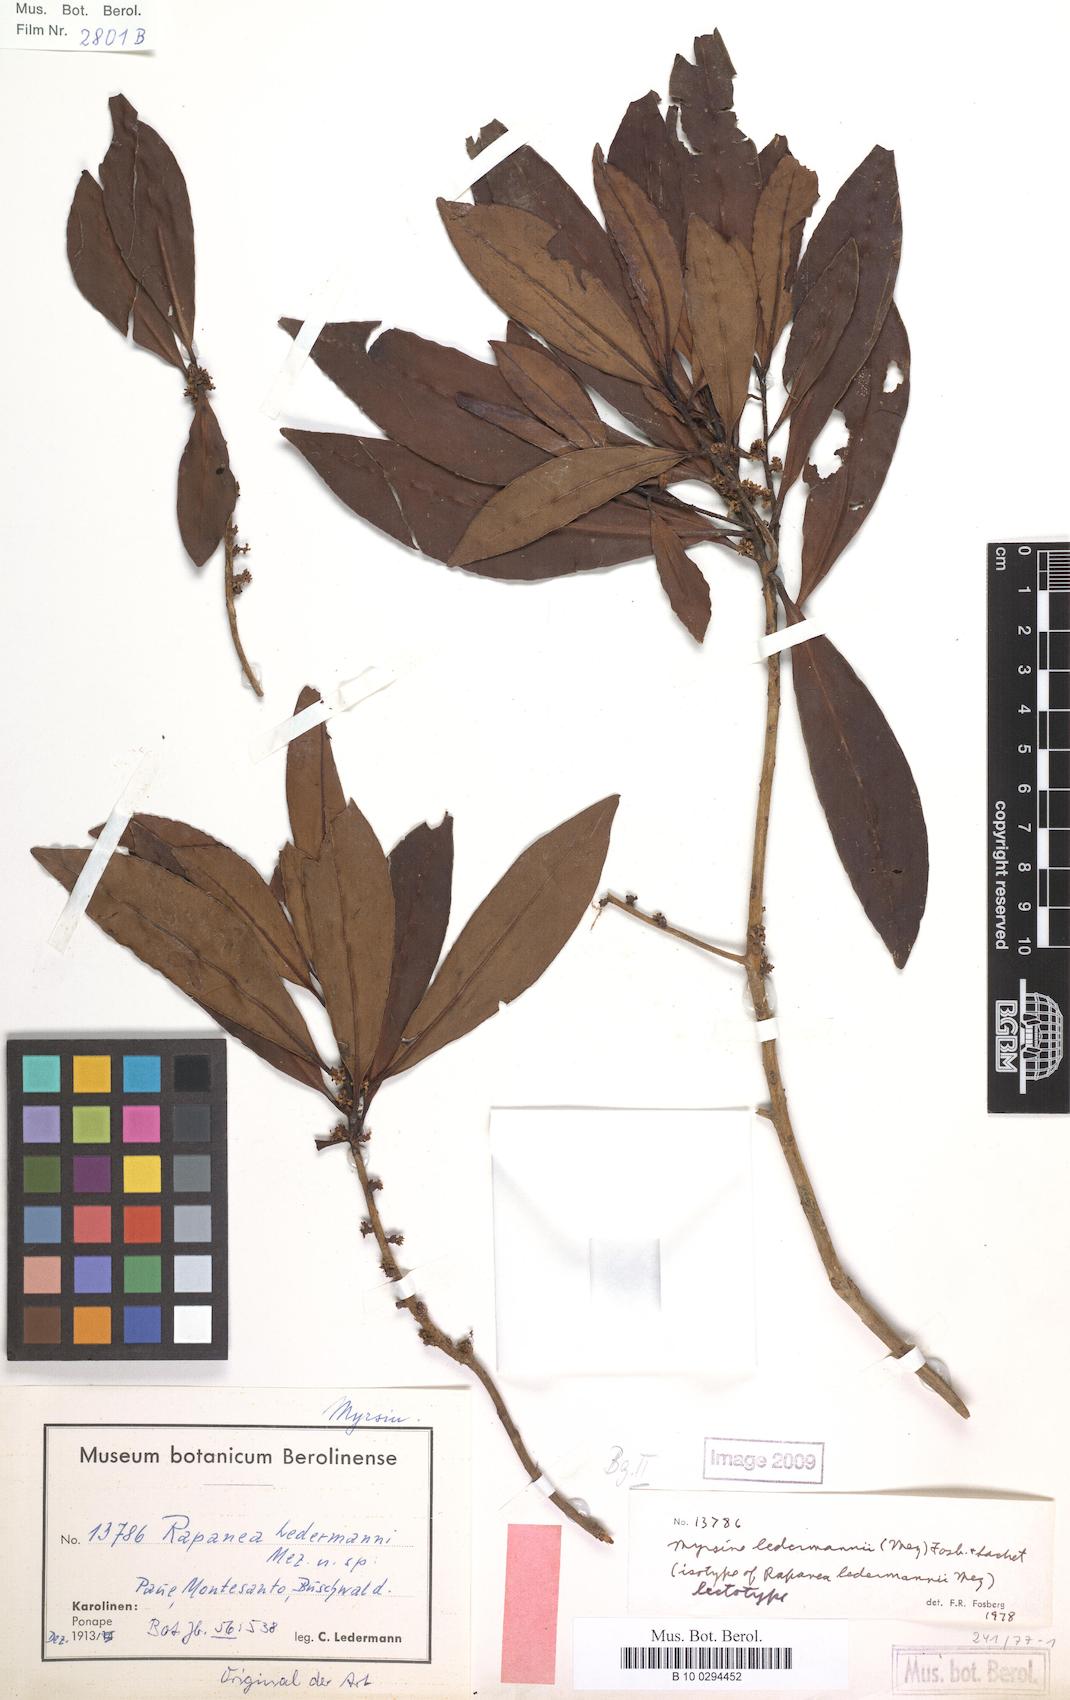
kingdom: Plantae
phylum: Tracheophyta
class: Magnoliopsida
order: Ericales
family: Primulaceae
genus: Myrsine
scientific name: Myrsine ledermannii
